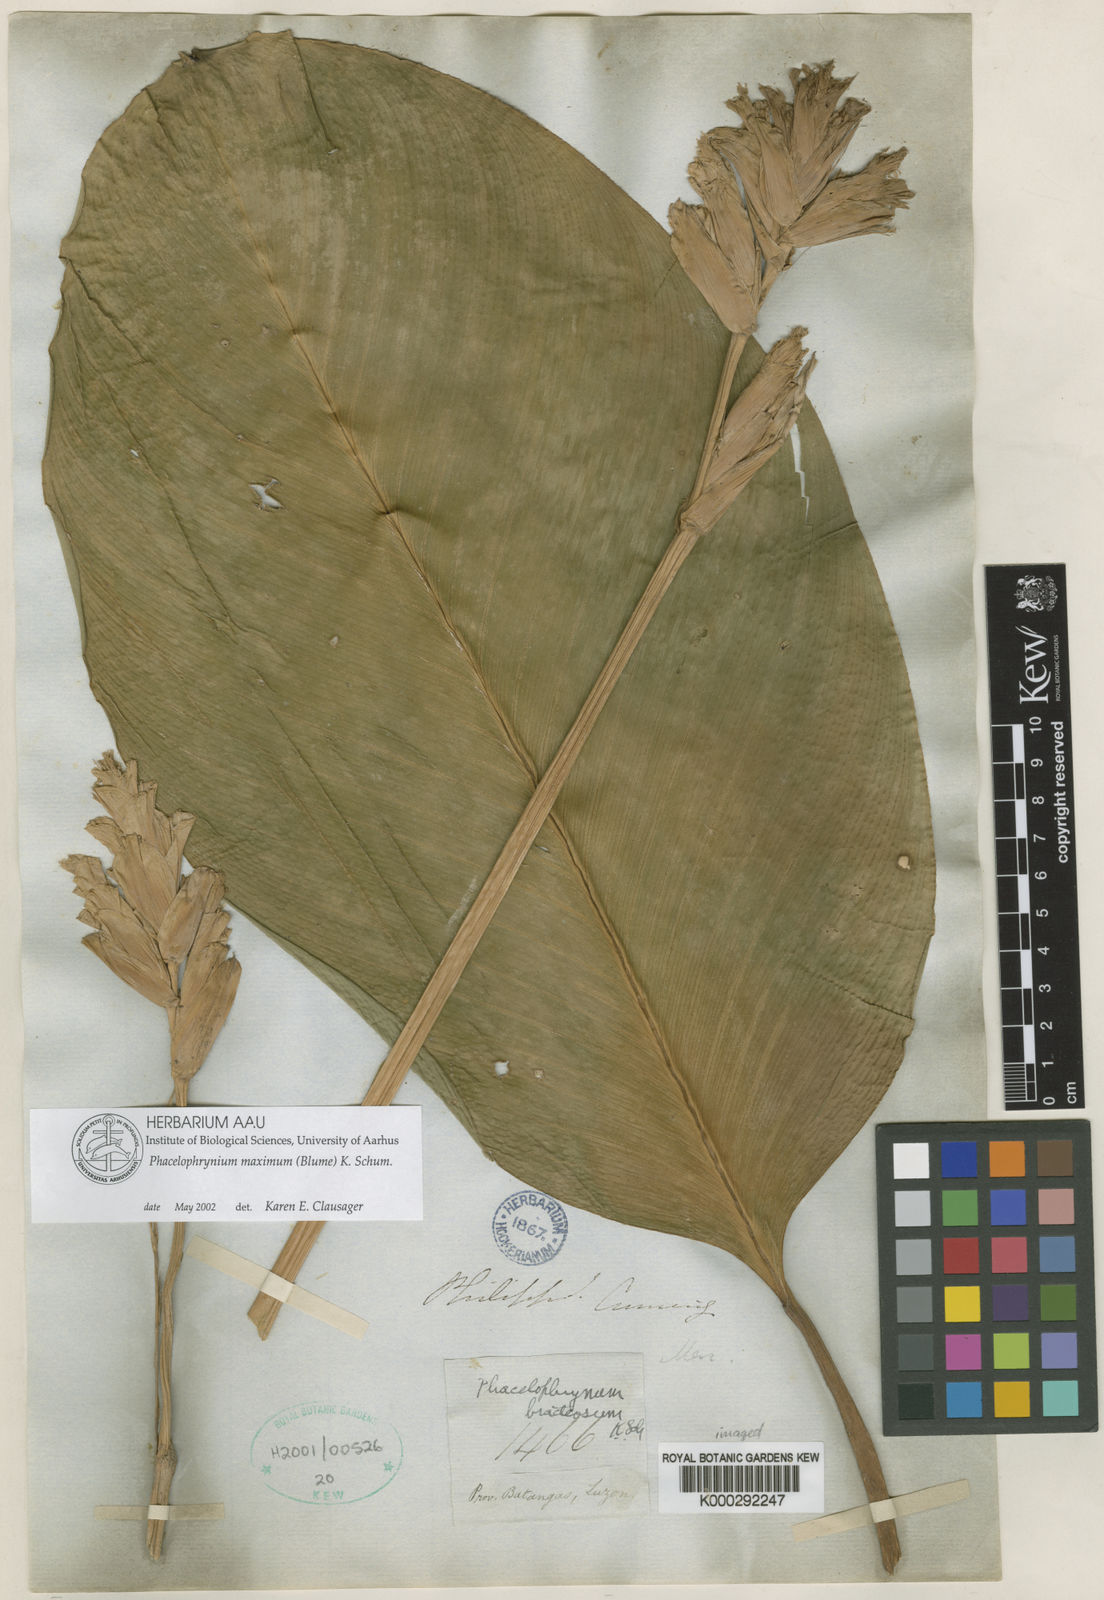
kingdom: Plantae
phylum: Tracheophyta
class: Liliopsida
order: Zingiberales
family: Marantaceae
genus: Phrynium
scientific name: Phrynium maximum
